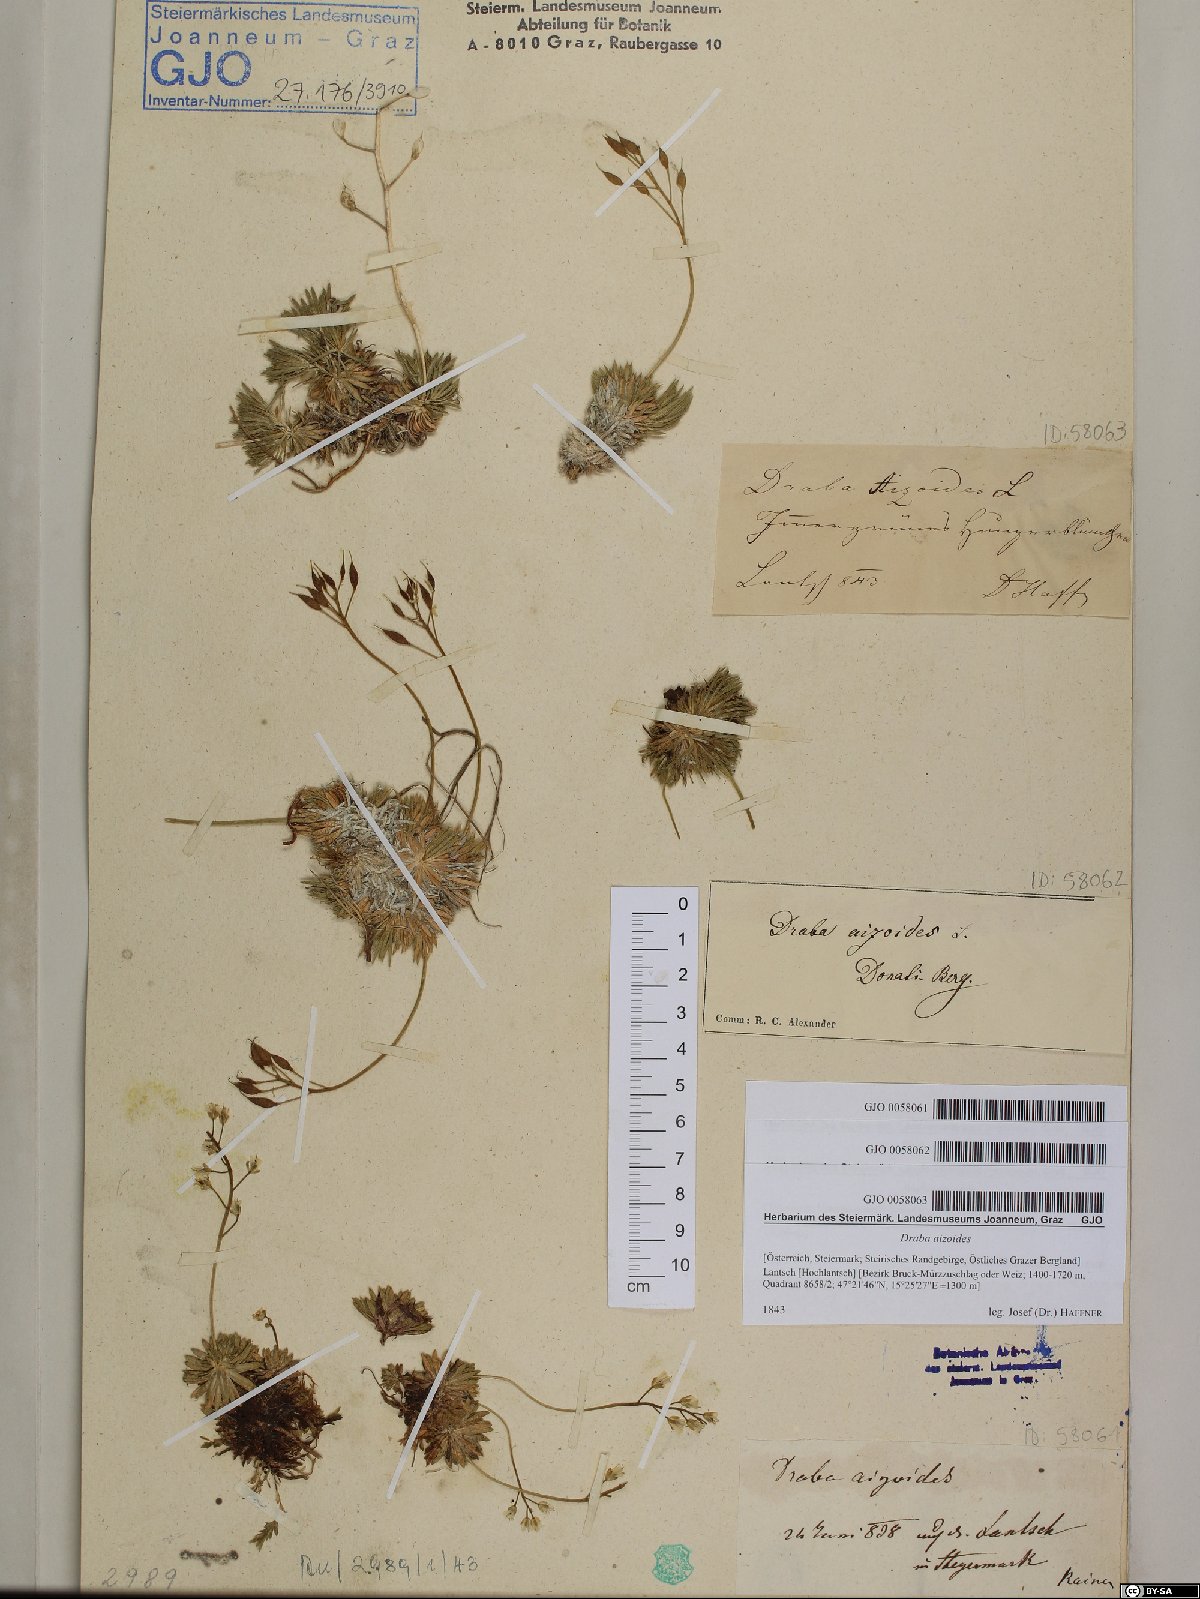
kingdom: Plantae
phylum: Tracheophyta
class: Magnoliopsida
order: Brassicales
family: Brassicaceae
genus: Draba
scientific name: Draba aizoides
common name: Yellow whitlowgrass
